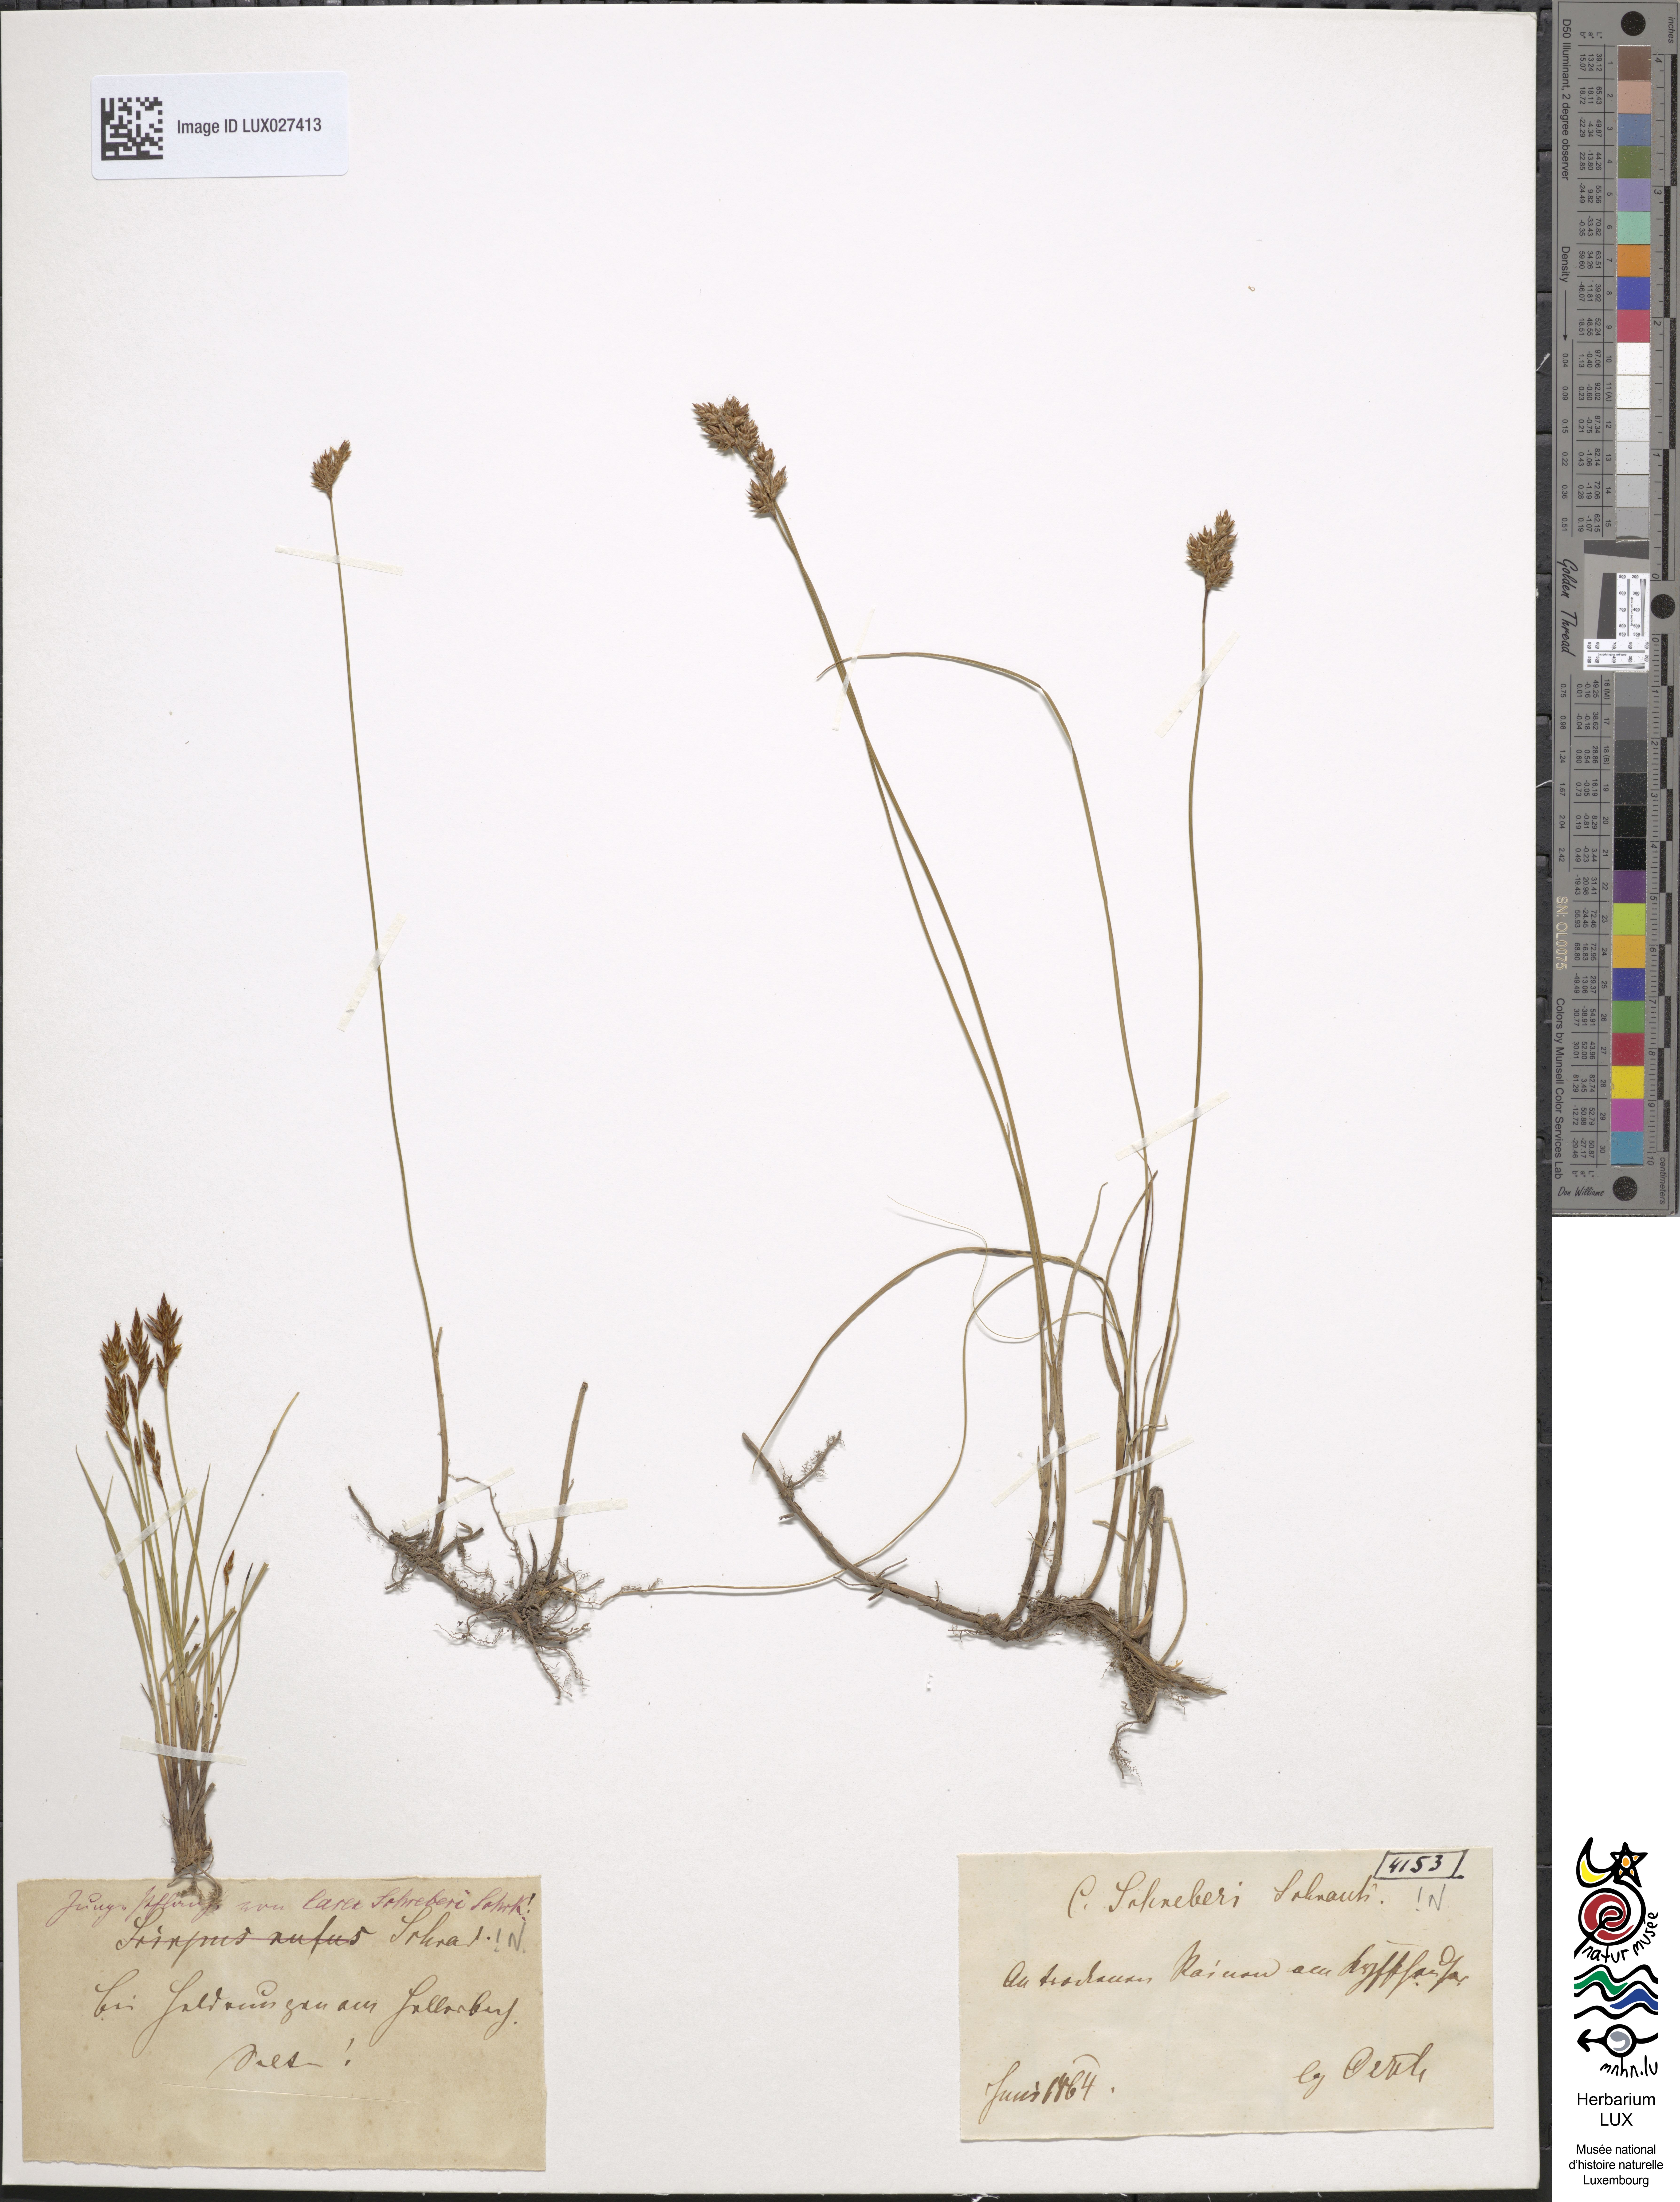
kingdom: Plantae
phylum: Tracheophyta
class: Liliopsida
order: Poales
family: Cyperaceae
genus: Carex
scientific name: Carex praecox
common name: Early sedge
